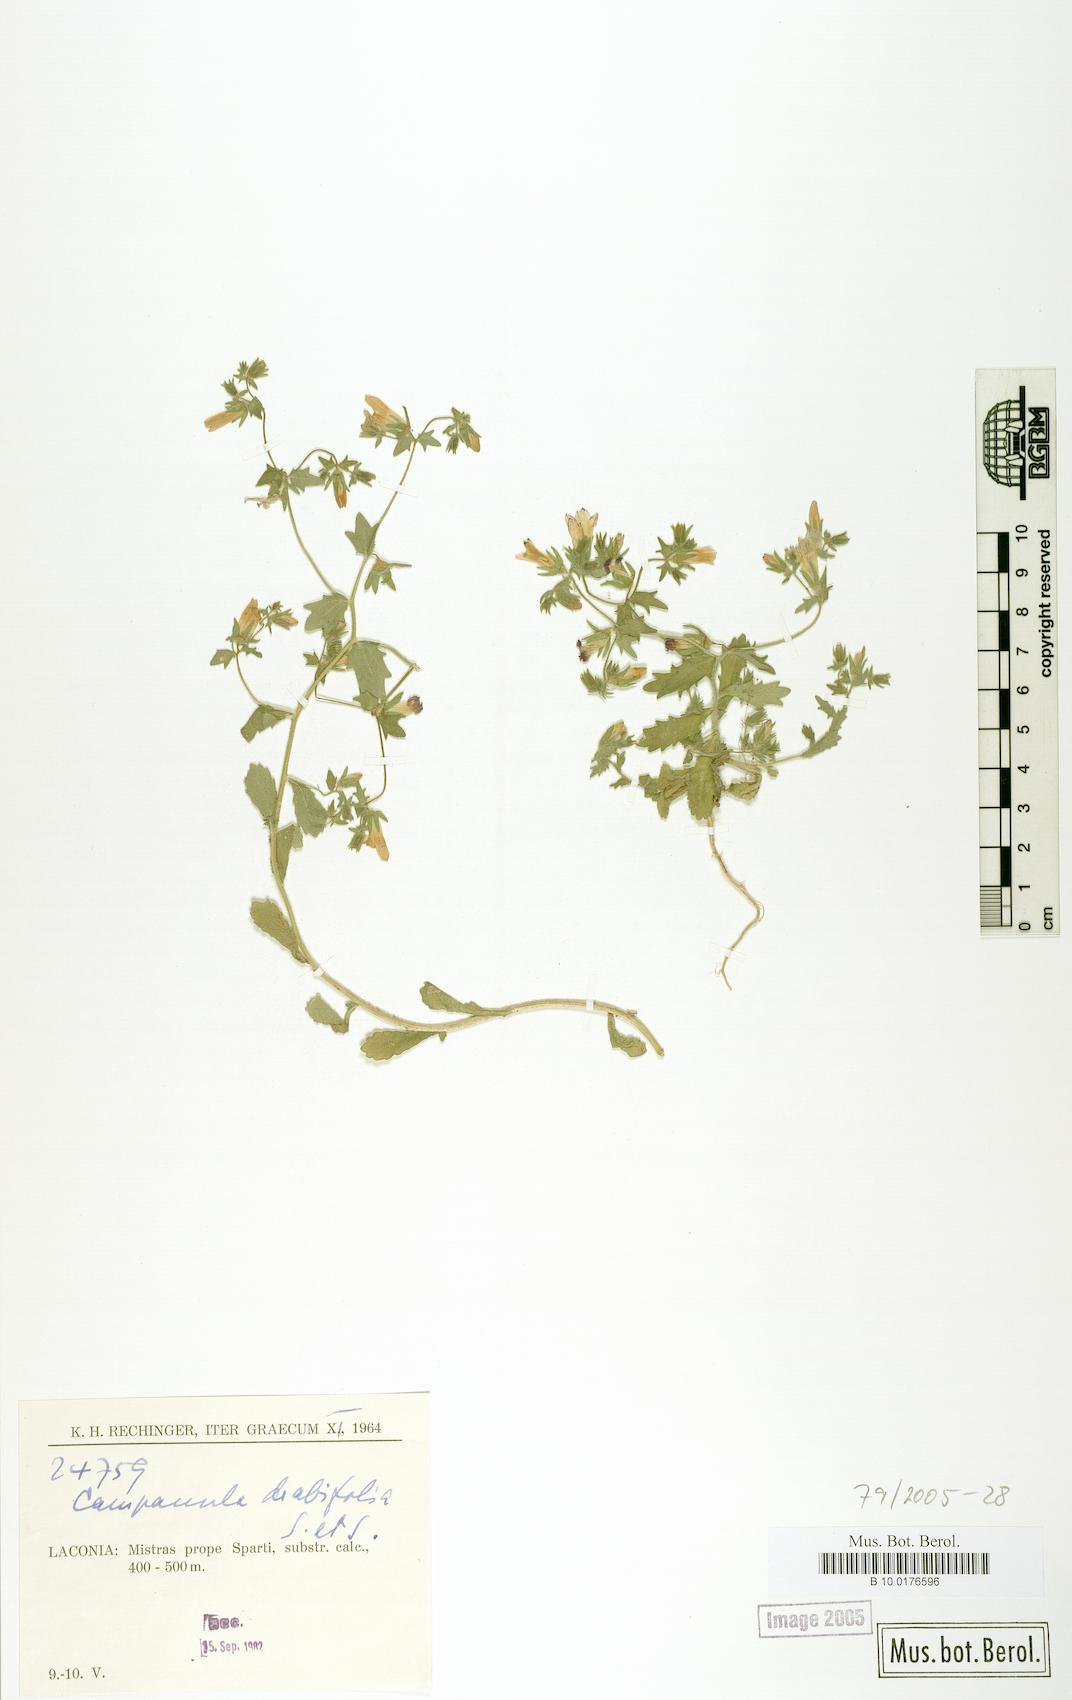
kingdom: Plantae
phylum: Tracheophyta
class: Magnoliopsida
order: Asterales
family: Campanulaceae
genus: Campanula
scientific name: Campanula drabifolia
